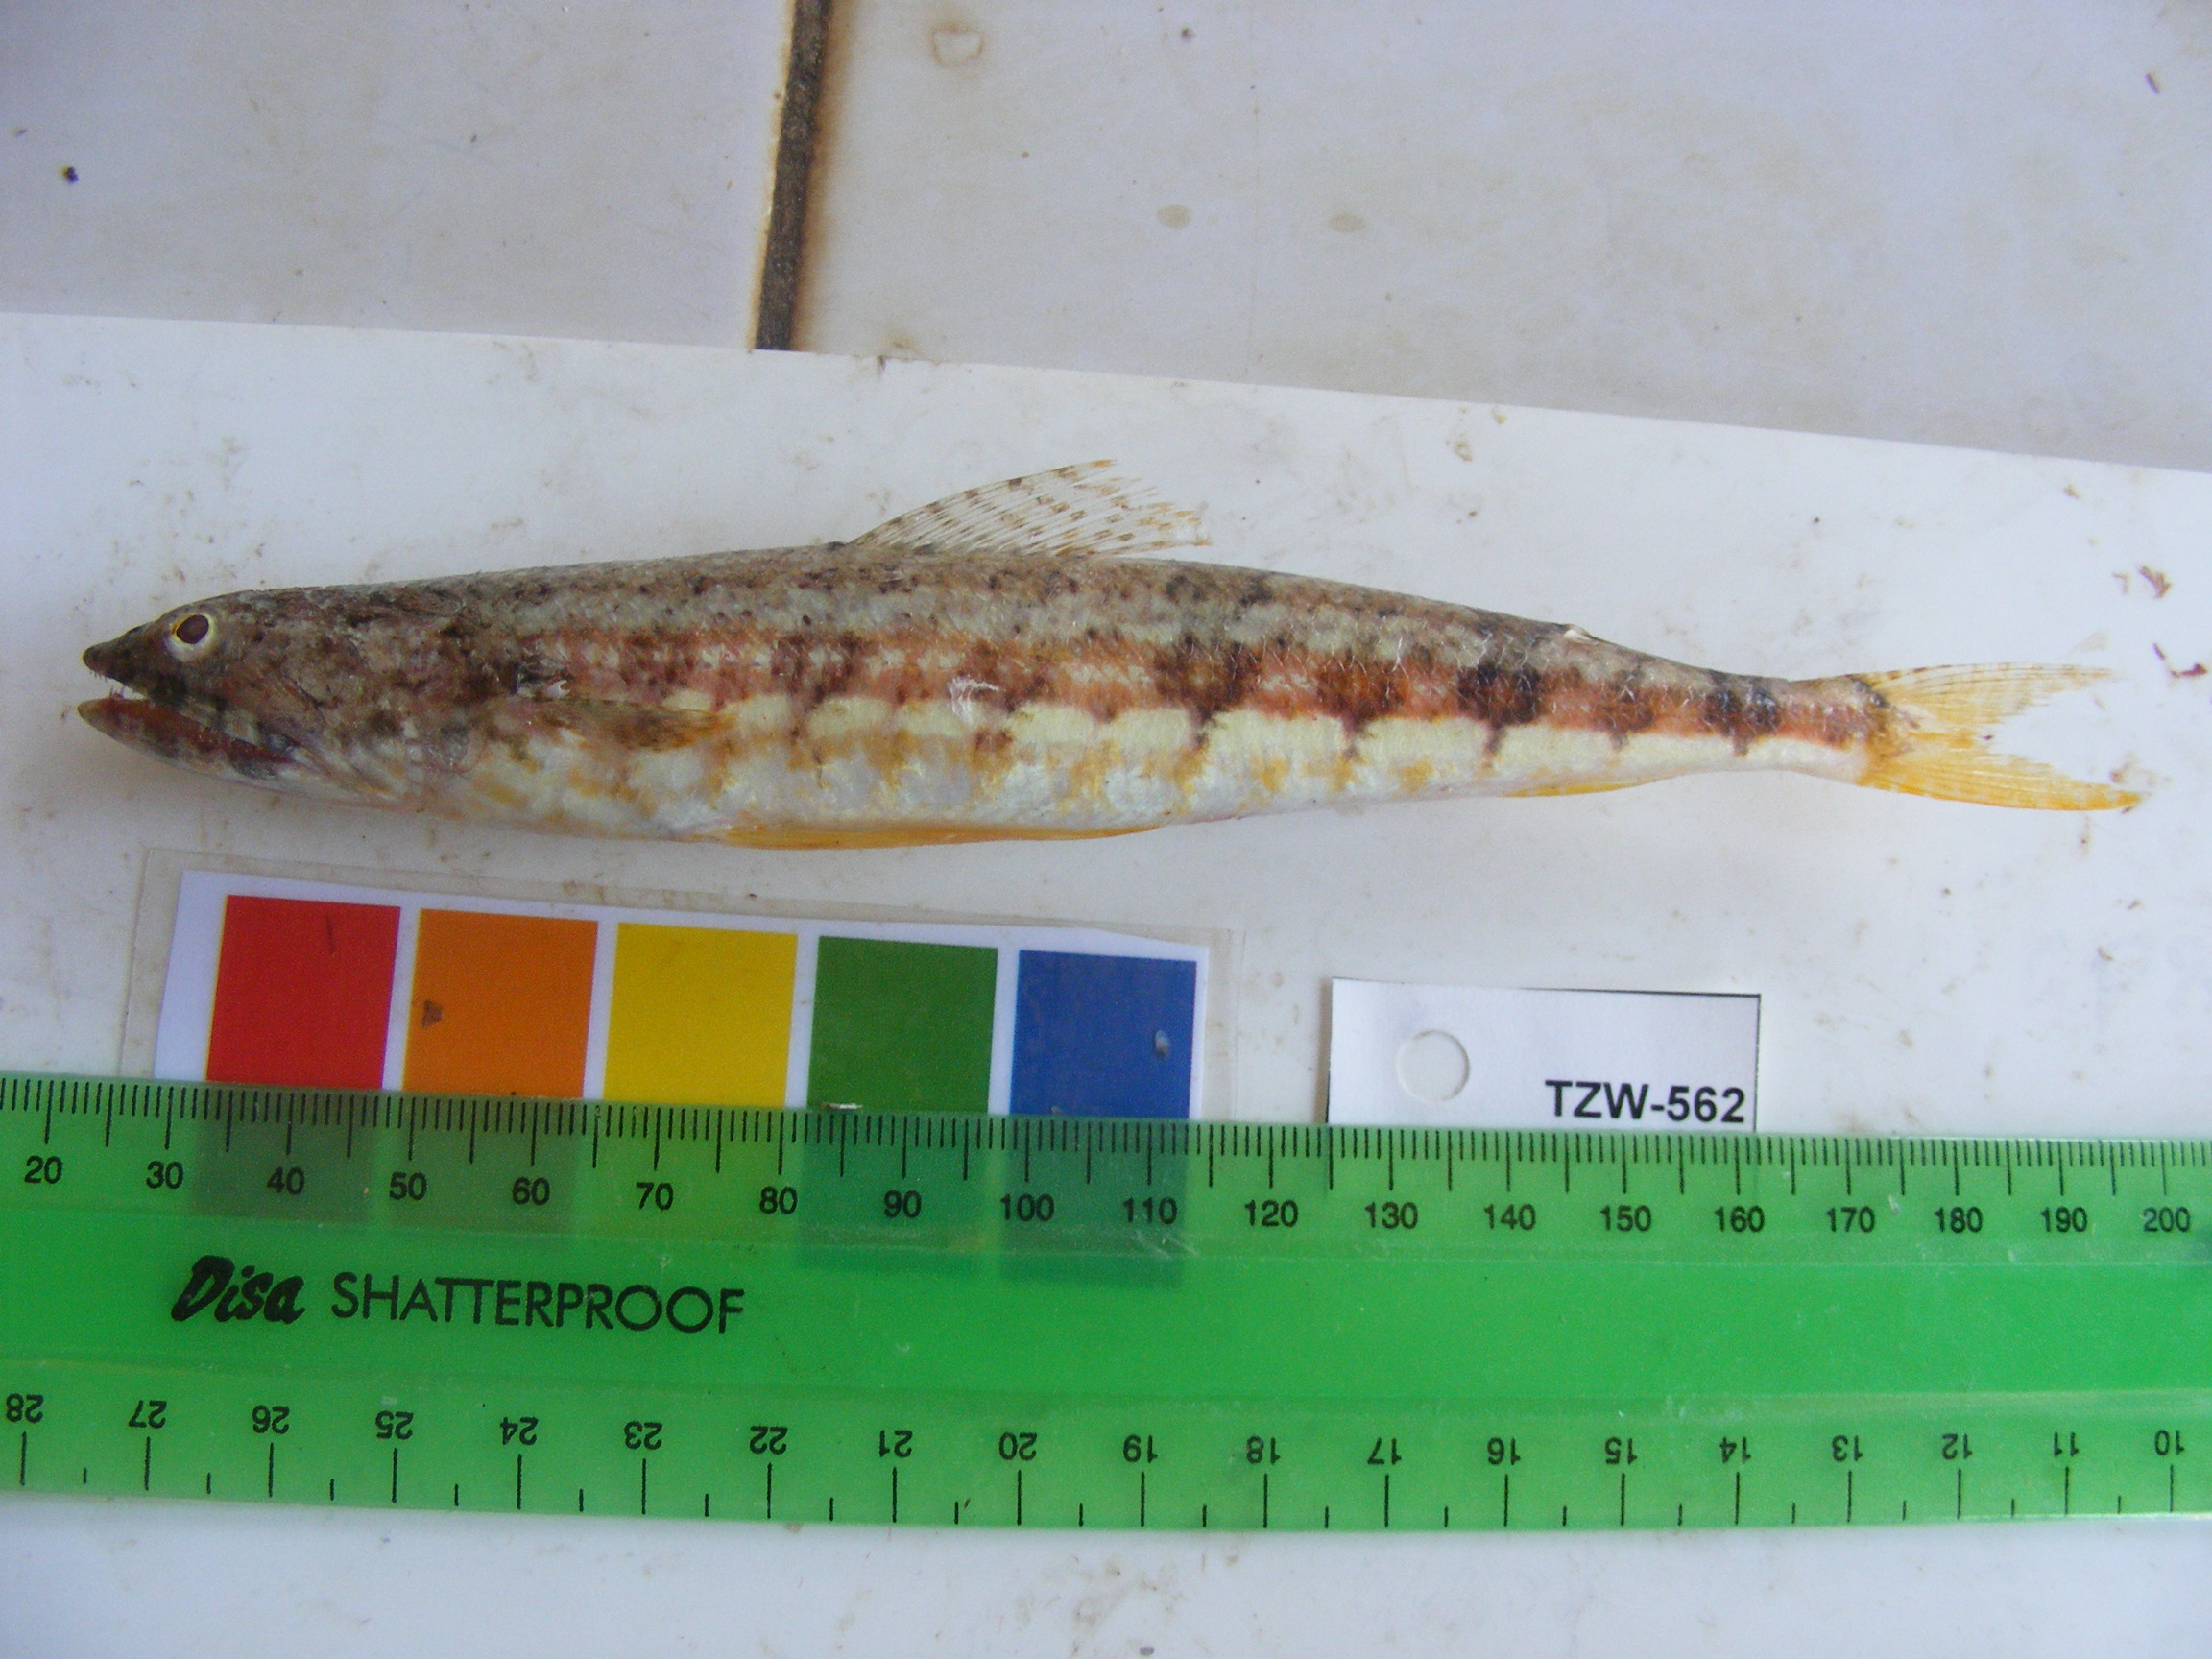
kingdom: Animalia
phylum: Chordata
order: Aulopiformes
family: Synodontidae
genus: Synodus
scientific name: Synodus dermatogenys
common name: Banded lizardfish
